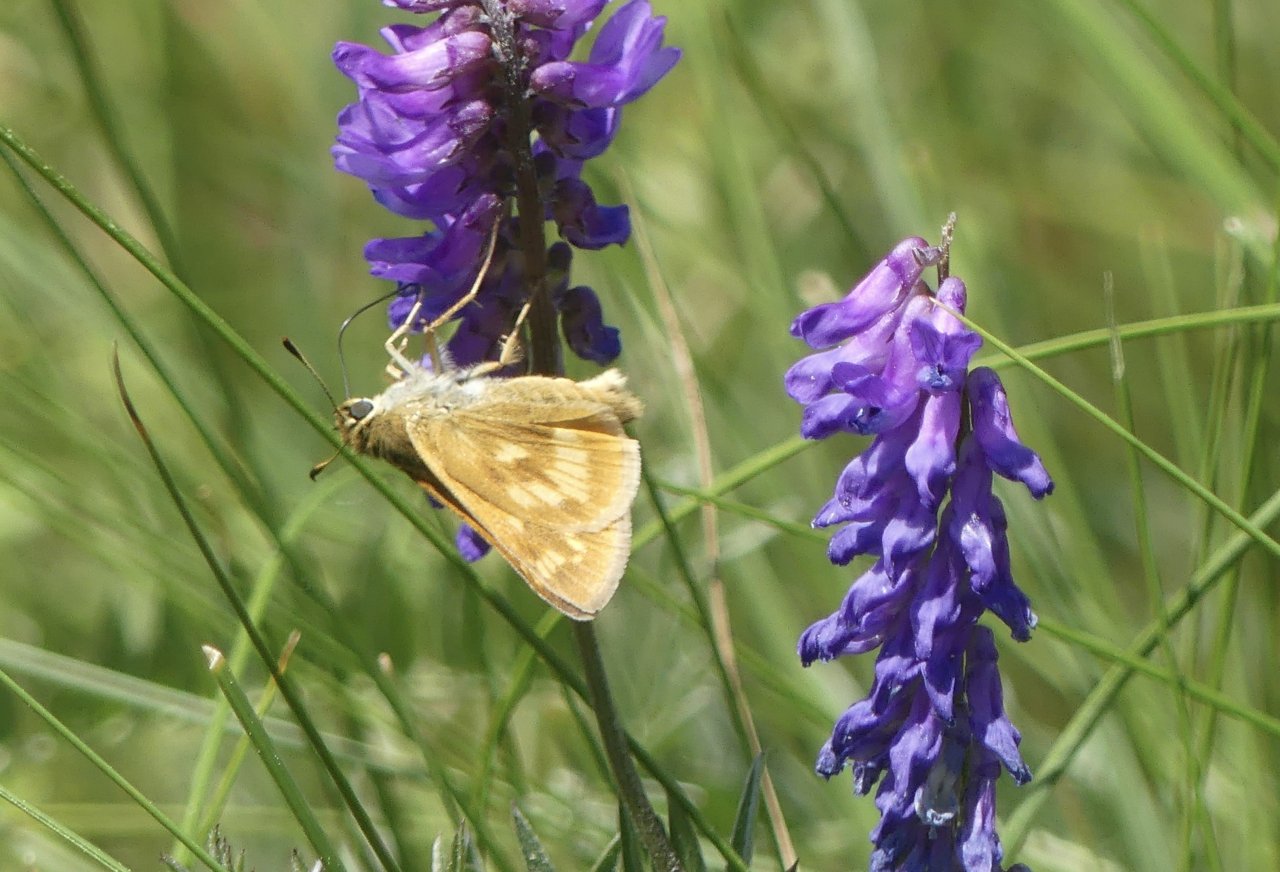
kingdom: Animalia
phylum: Arthropoda
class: Insecta
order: Lepidoptera
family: Hesperiidae
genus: Polites
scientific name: Polites
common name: Long Dash Skipper
